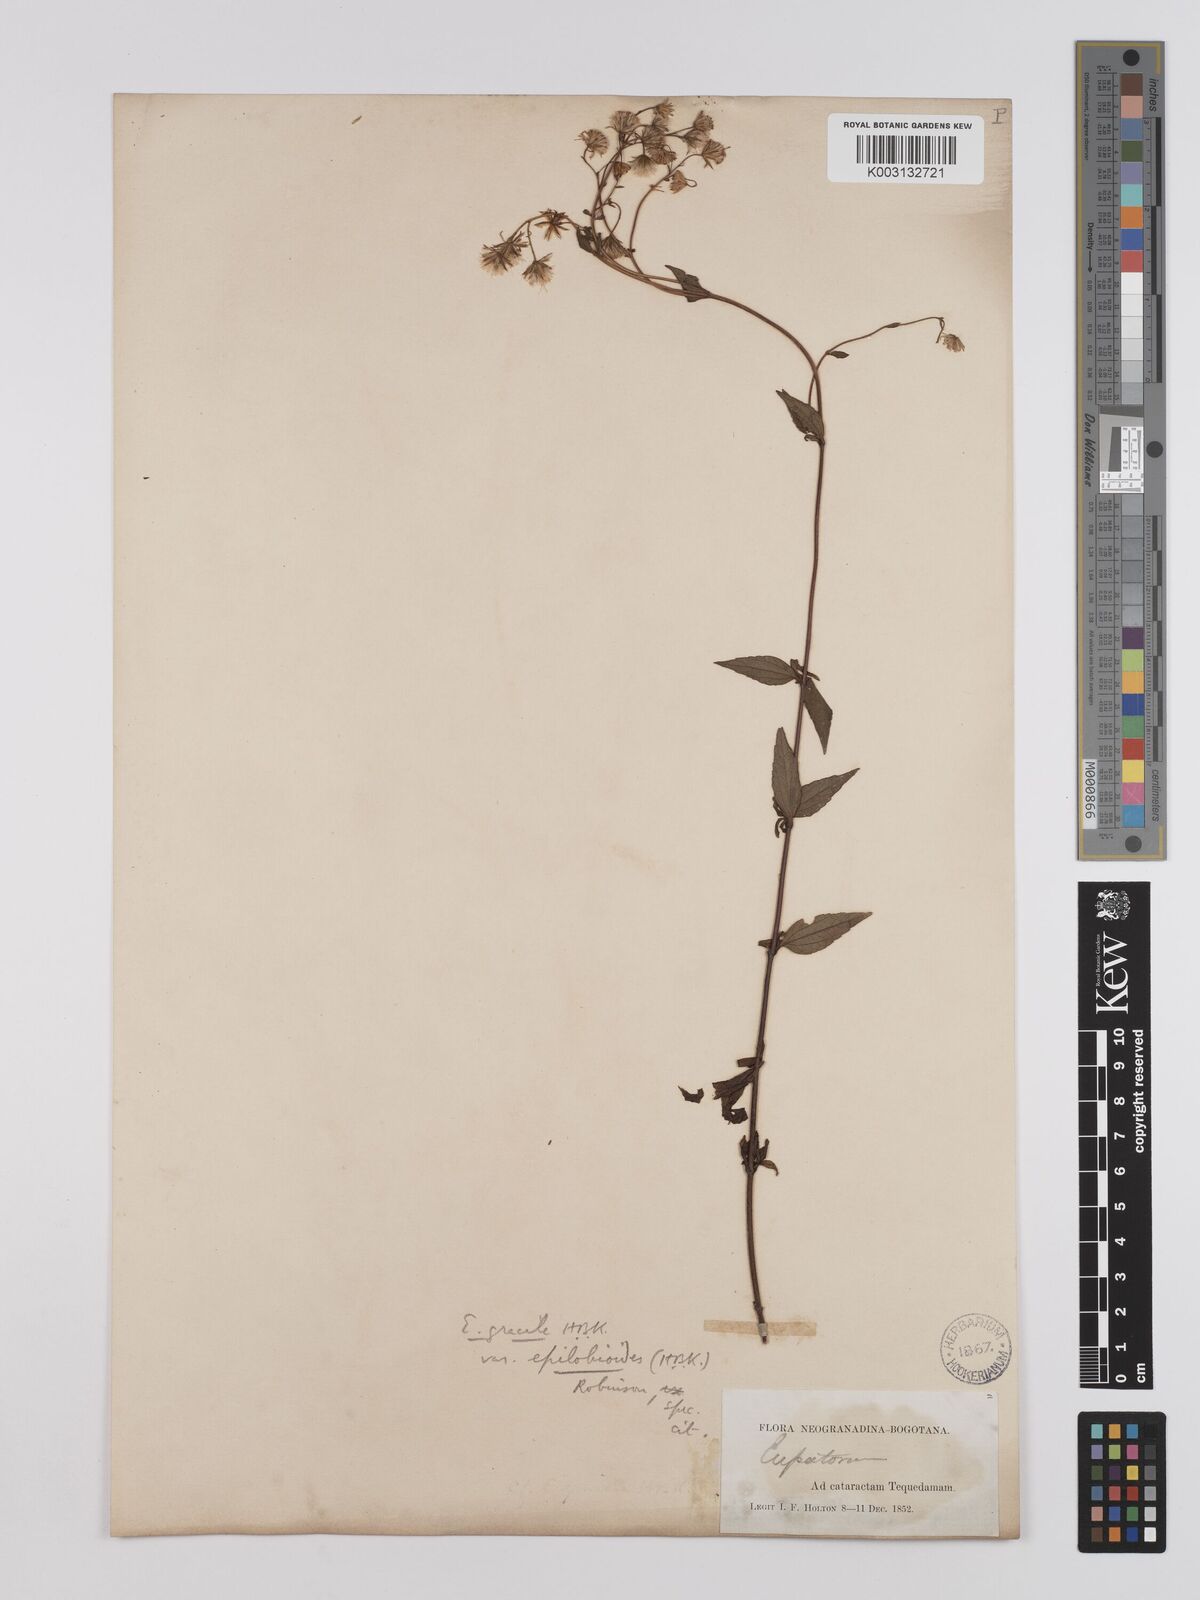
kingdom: Plantae
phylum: Tracheophyta
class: Magnoliopsida
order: Asterales
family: Asteraceae
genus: Ageratina
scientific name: Ageratina gracilis
